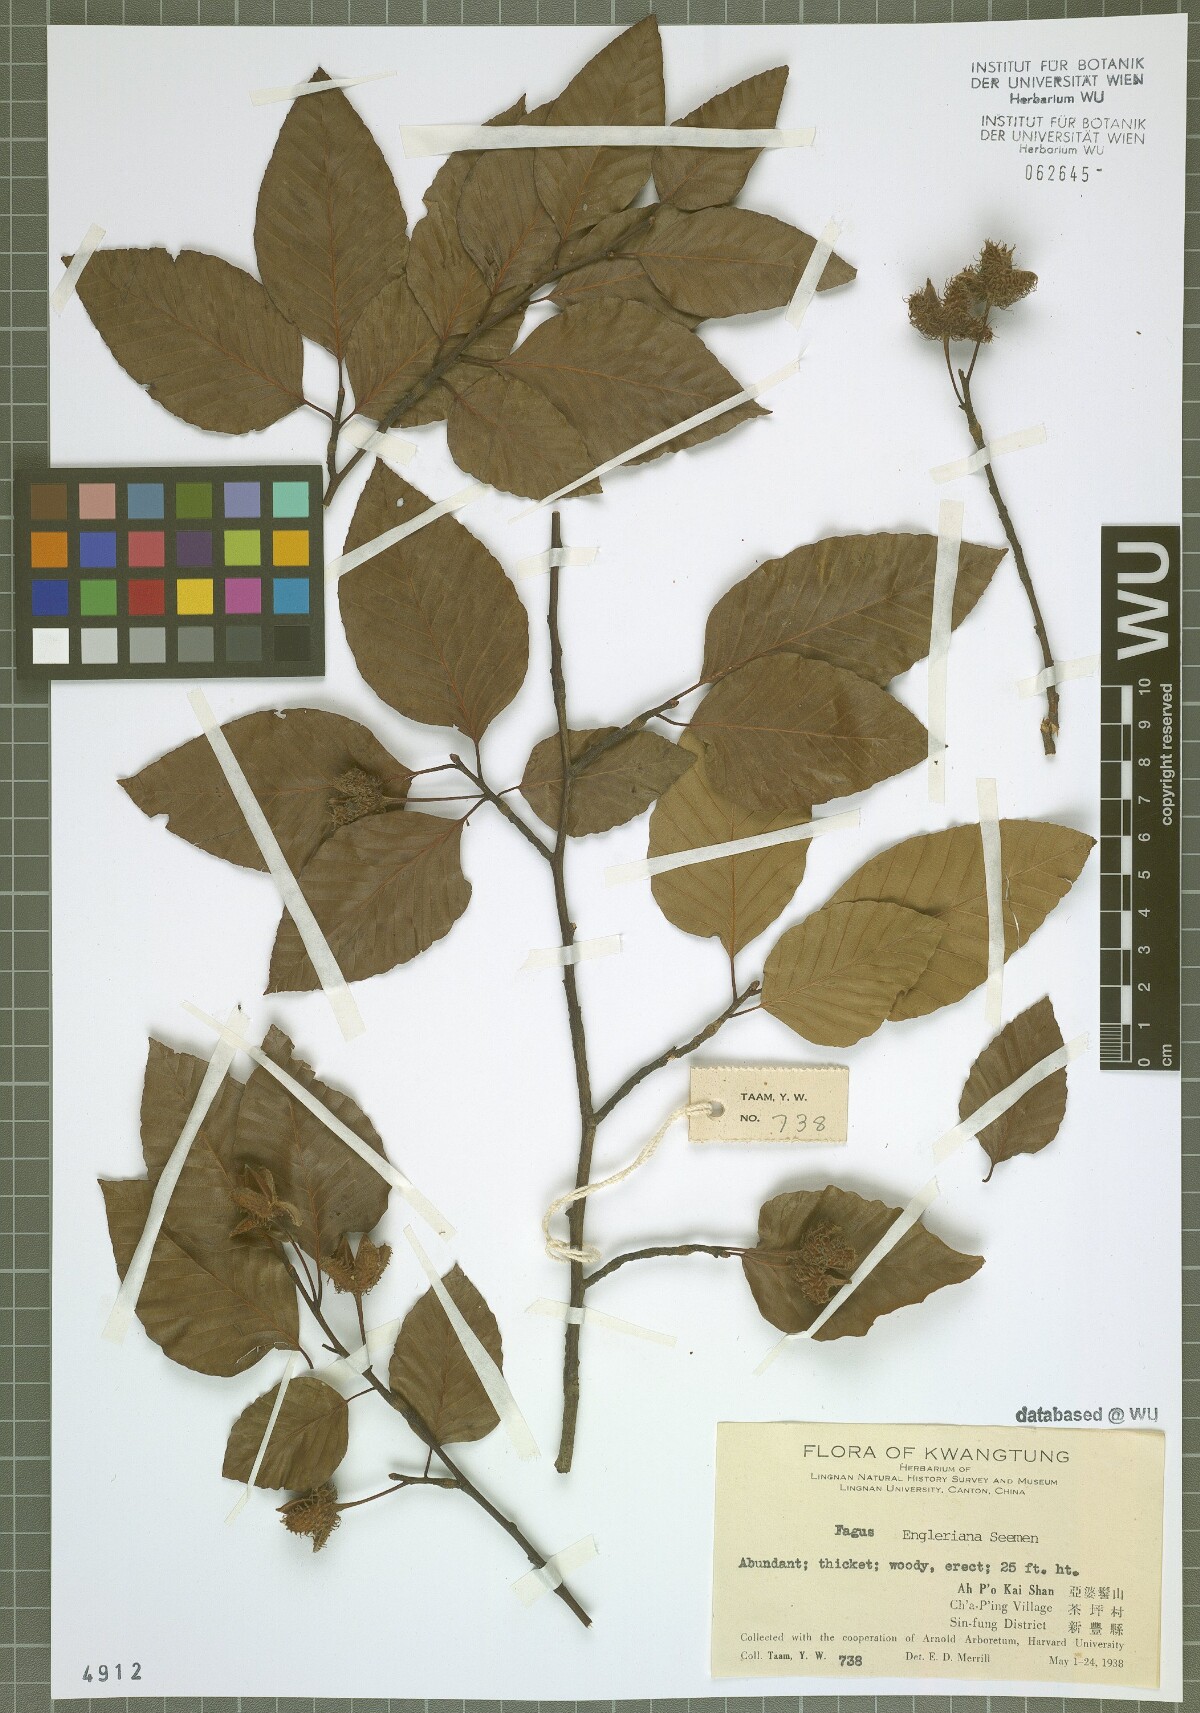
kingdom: Plantae
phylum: Tracheophyta
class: Magnoliopsida
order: Fagales
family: Fagaceae
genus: Fagus
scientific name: Fagus engleriana
